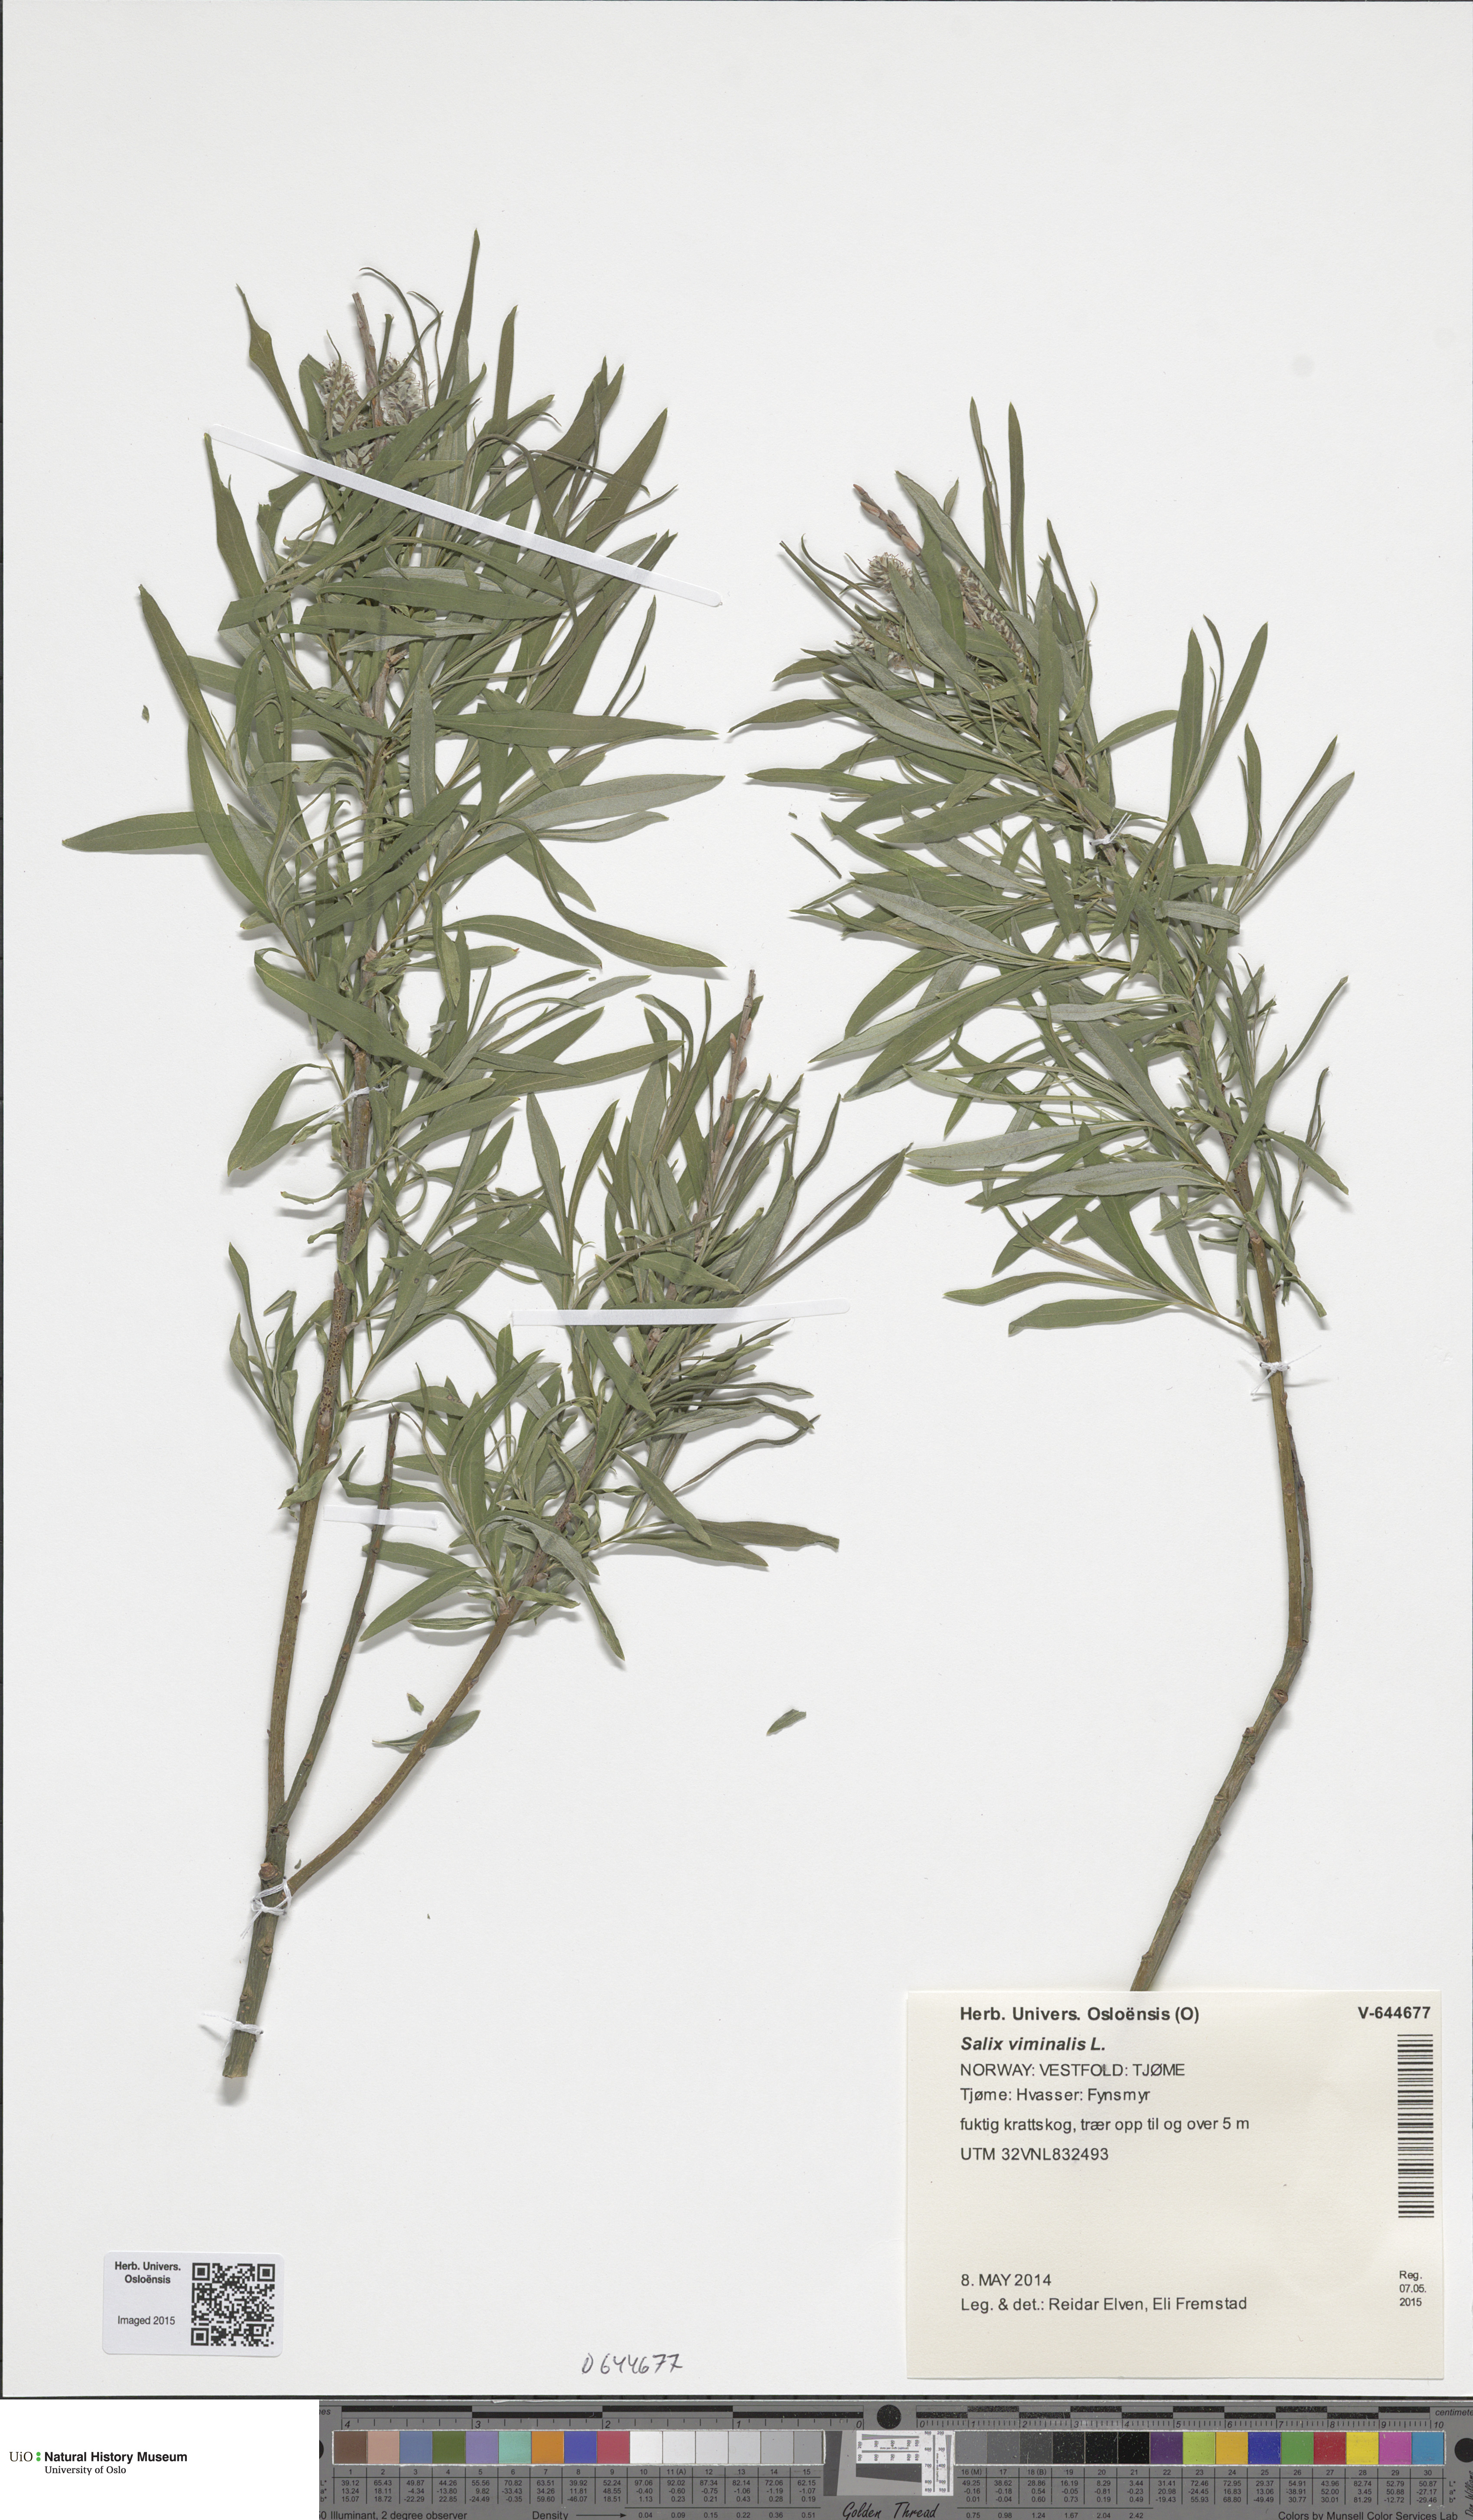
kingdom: Plantae
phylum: Tracheophyta
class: Magnoliopsida
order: Malpighiales
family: Salicaceae
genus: Salix
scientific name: Salix viminalis
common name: Osier
